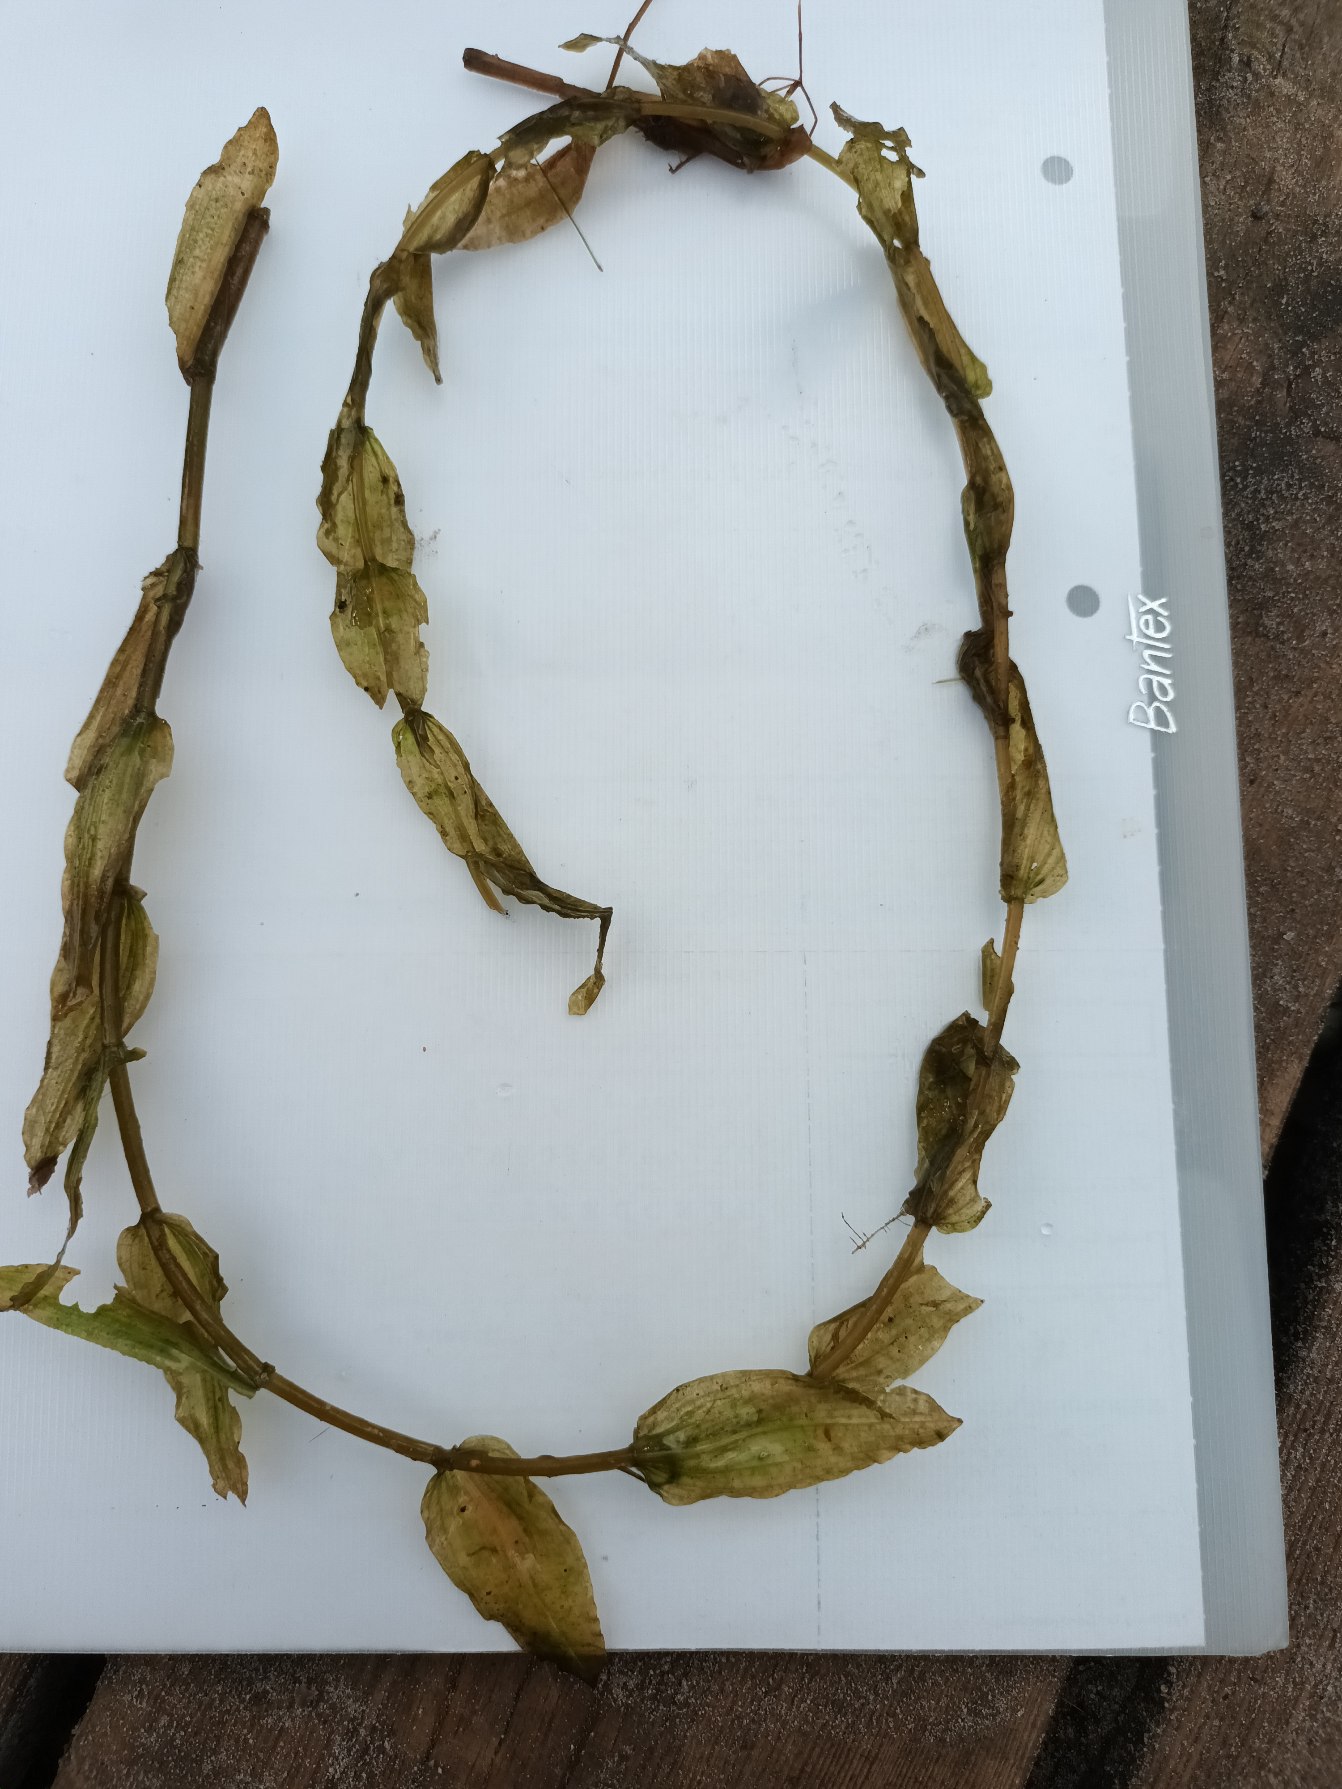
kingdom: Plantae
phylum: Tracheophyta
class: Liliopsida
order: Alismatales
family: Potamogetonaceae
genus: Potamogeton
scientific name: Potamogeton perfoliatus
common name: Hjertebladet vandaks
